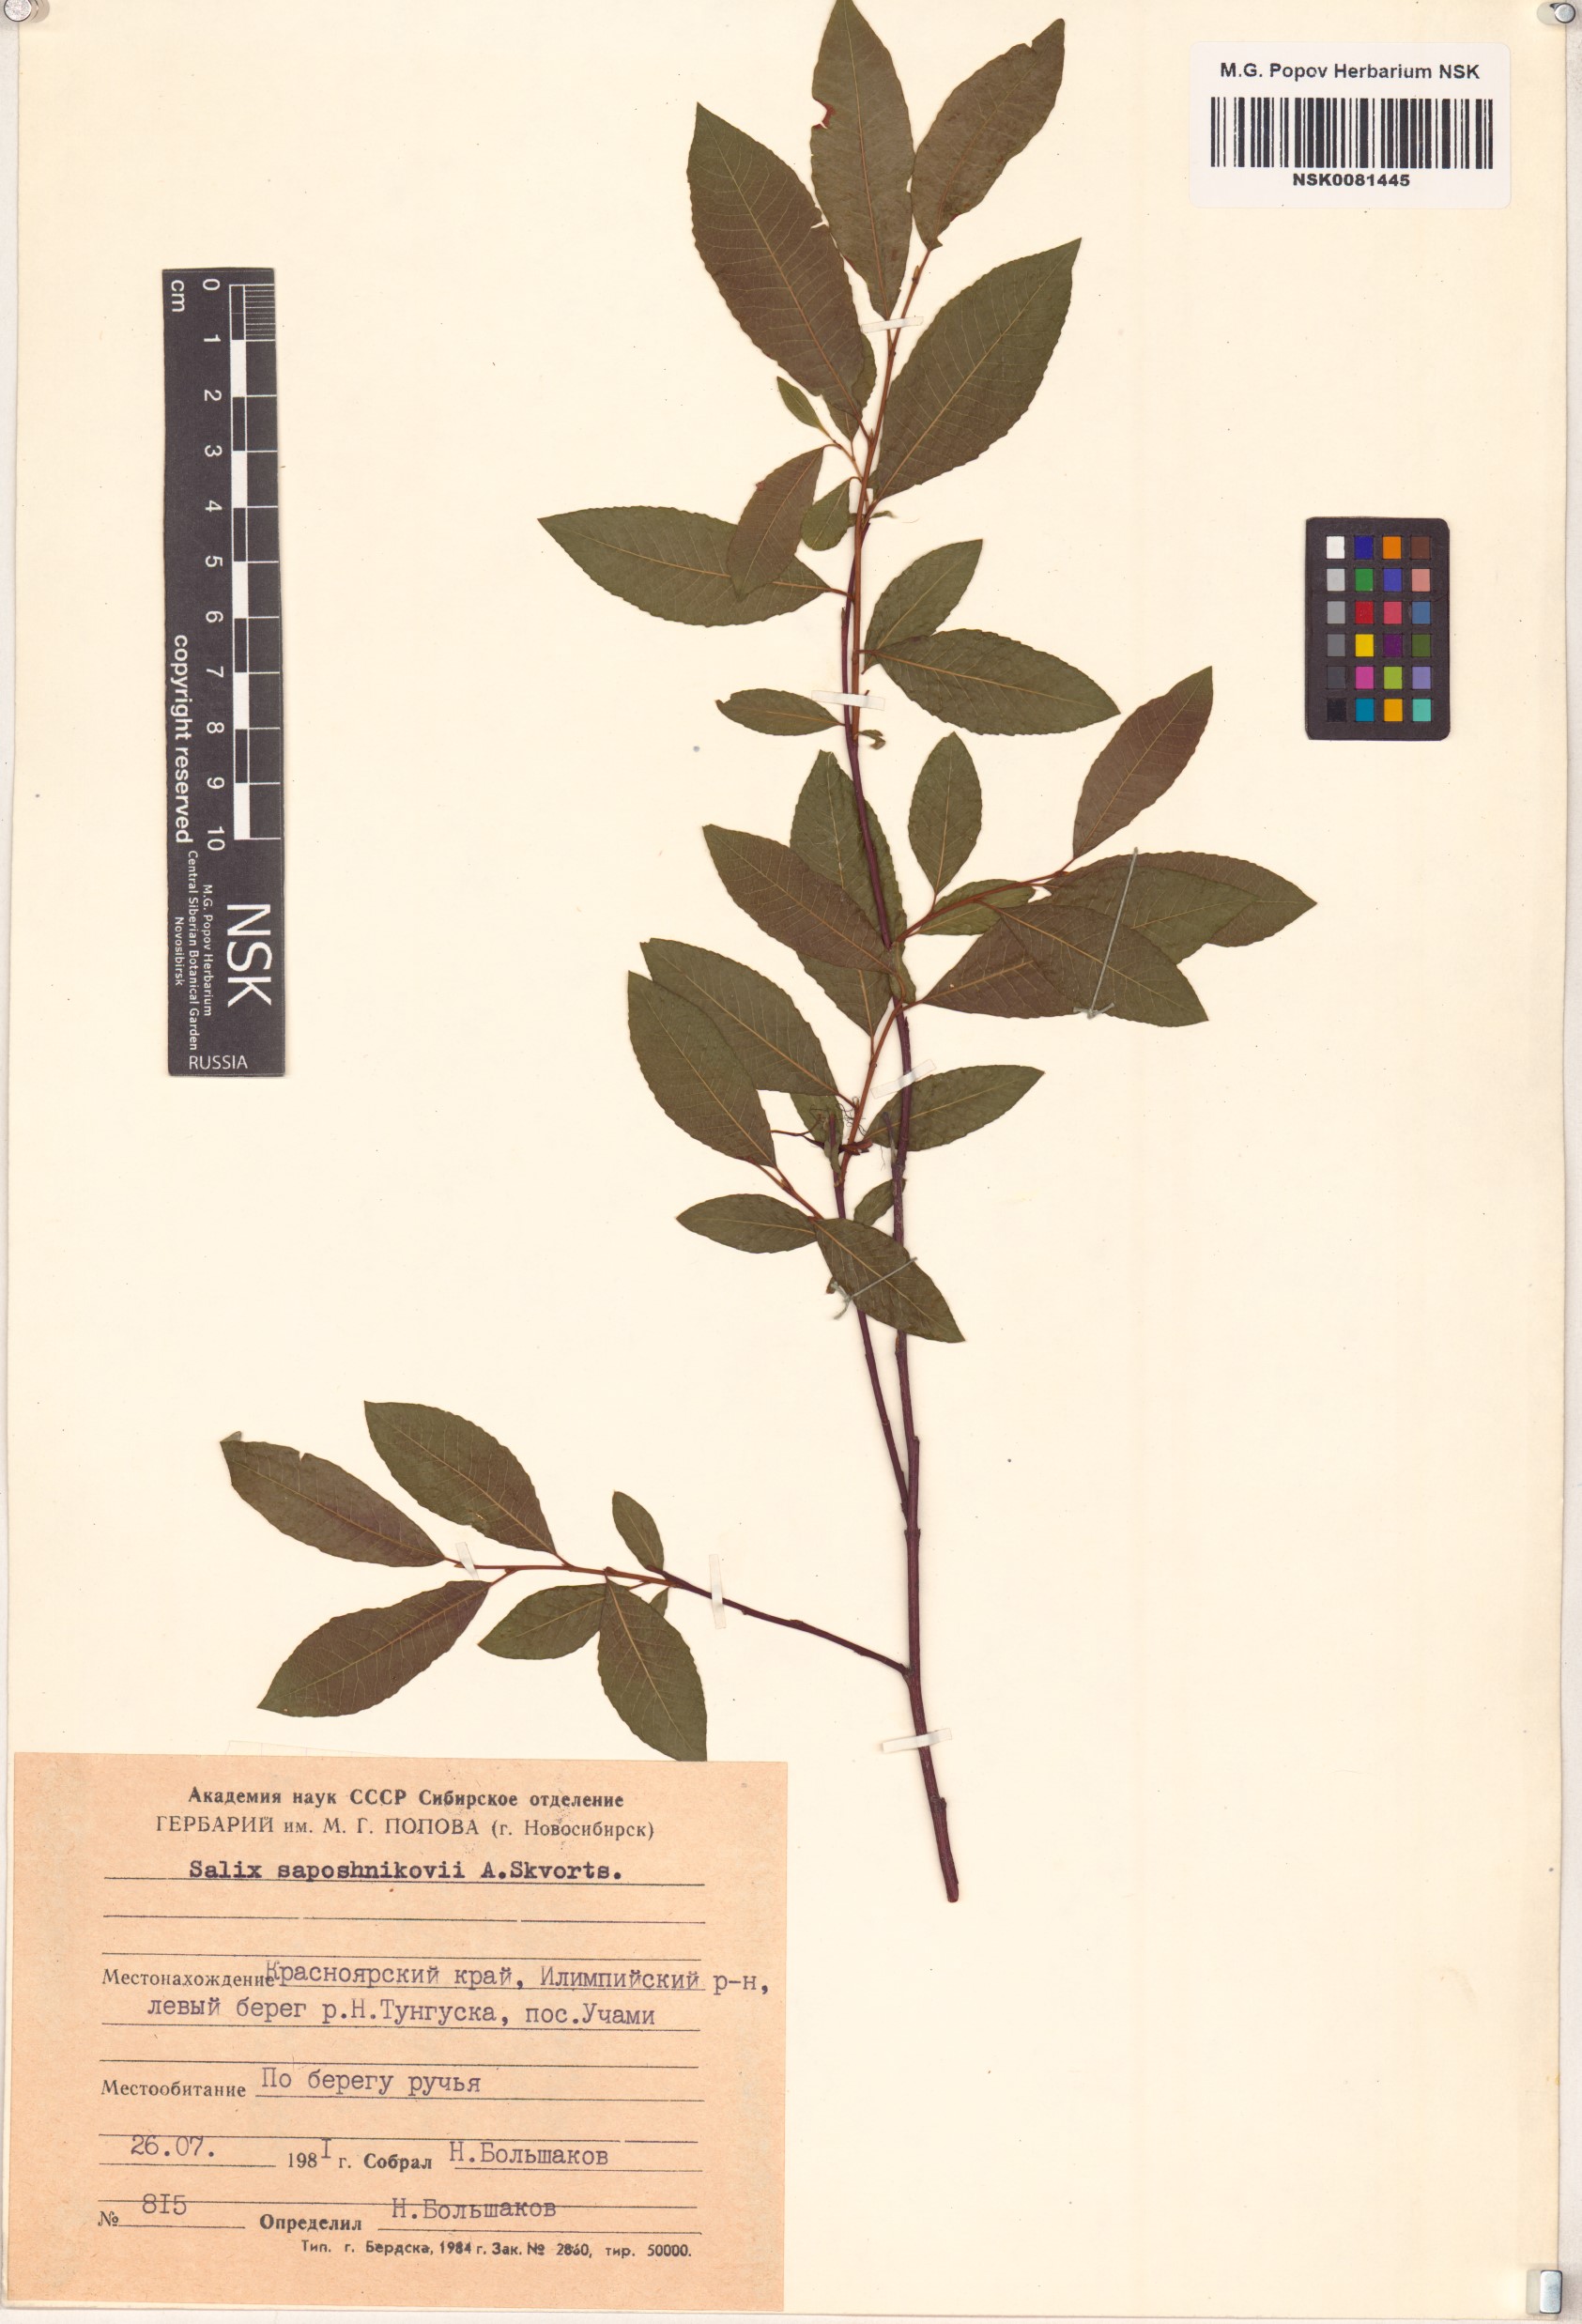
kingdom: Plantae
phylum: Tracheophyta
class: Magnoliopsida
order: Malpighiales
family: Salicaceae
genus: Salix
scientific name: Salix saposhnikovii
